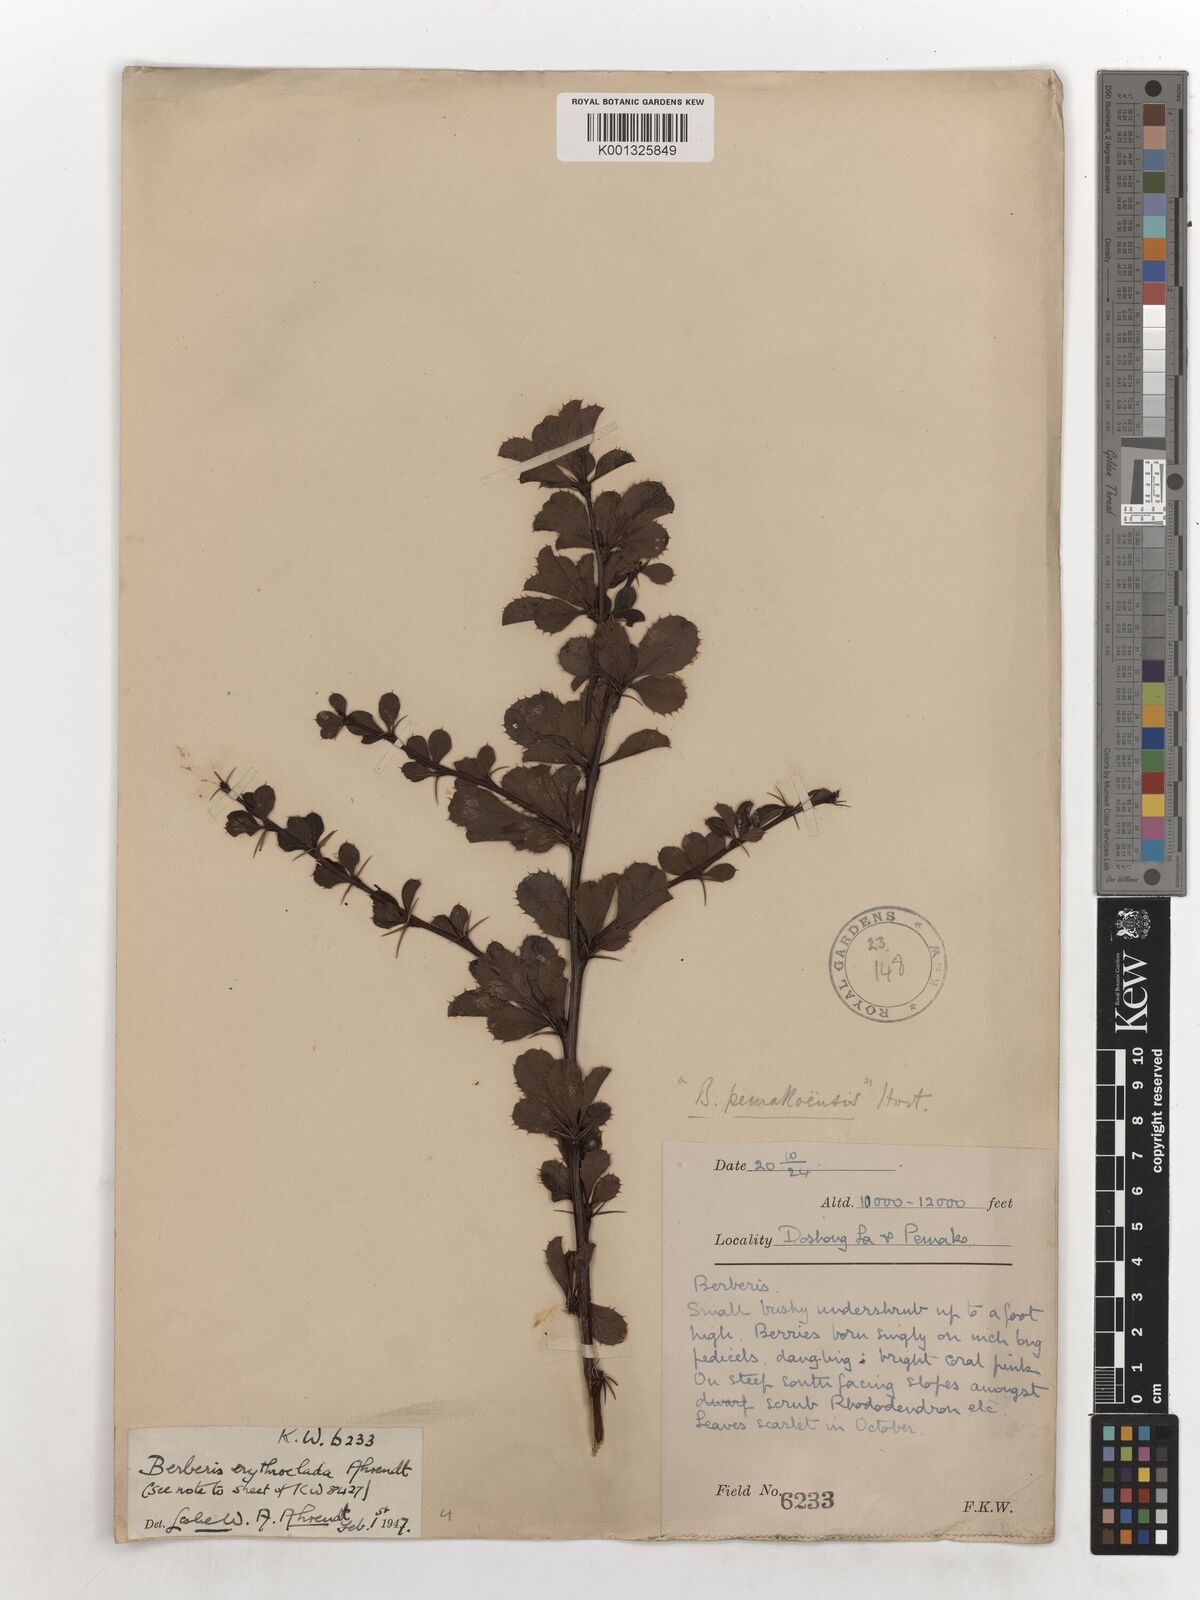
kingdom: Plantae
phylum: Tracheophyta
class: Magnoliopsida
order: Ranunculales
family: Berberidaceae
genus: Berberis
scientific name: Berberis erythroclada
